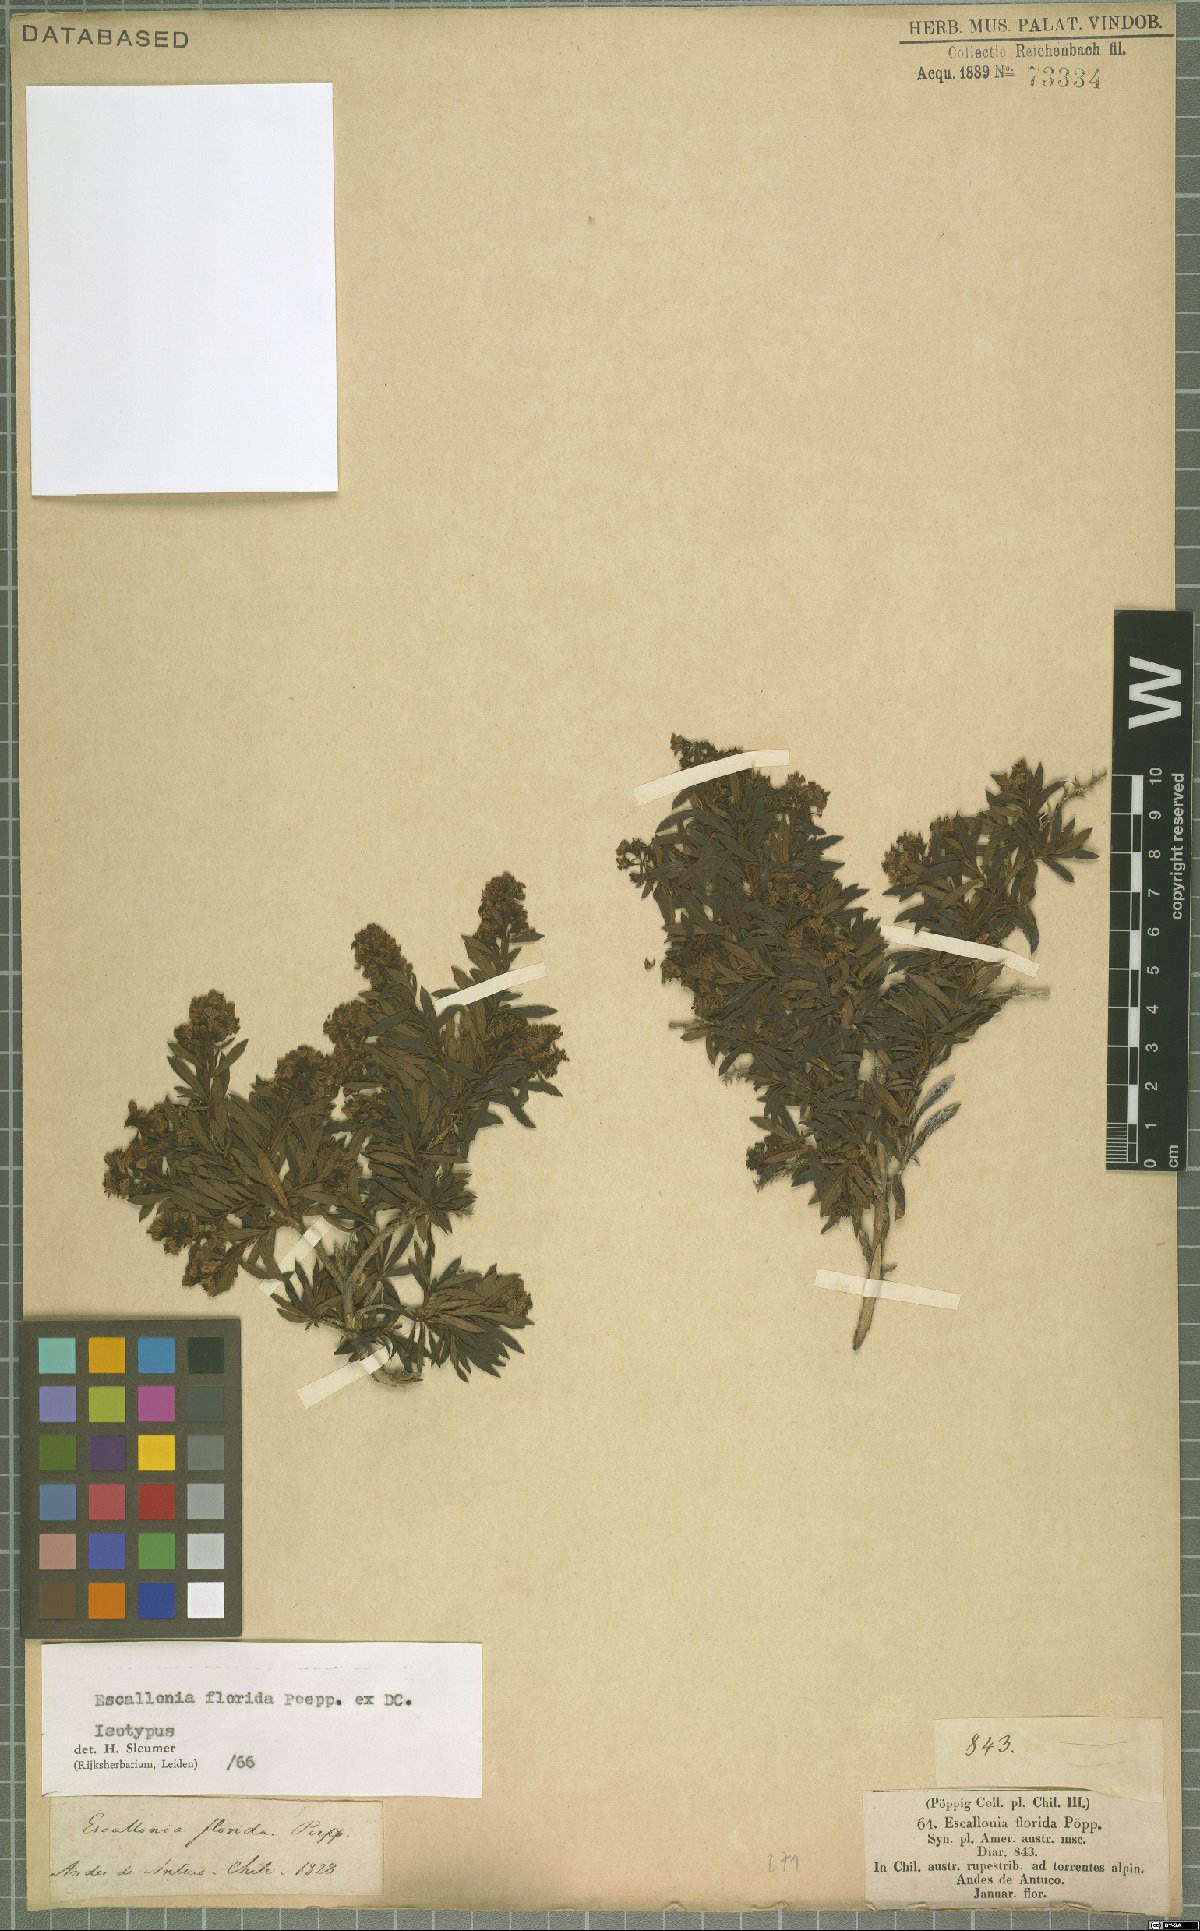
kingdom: Plantae
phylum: Tracheophyta
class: Magnoliopsida
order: Escalloniales
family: Escalloniaceae
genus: Escallonia
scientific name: Escallonia florida
